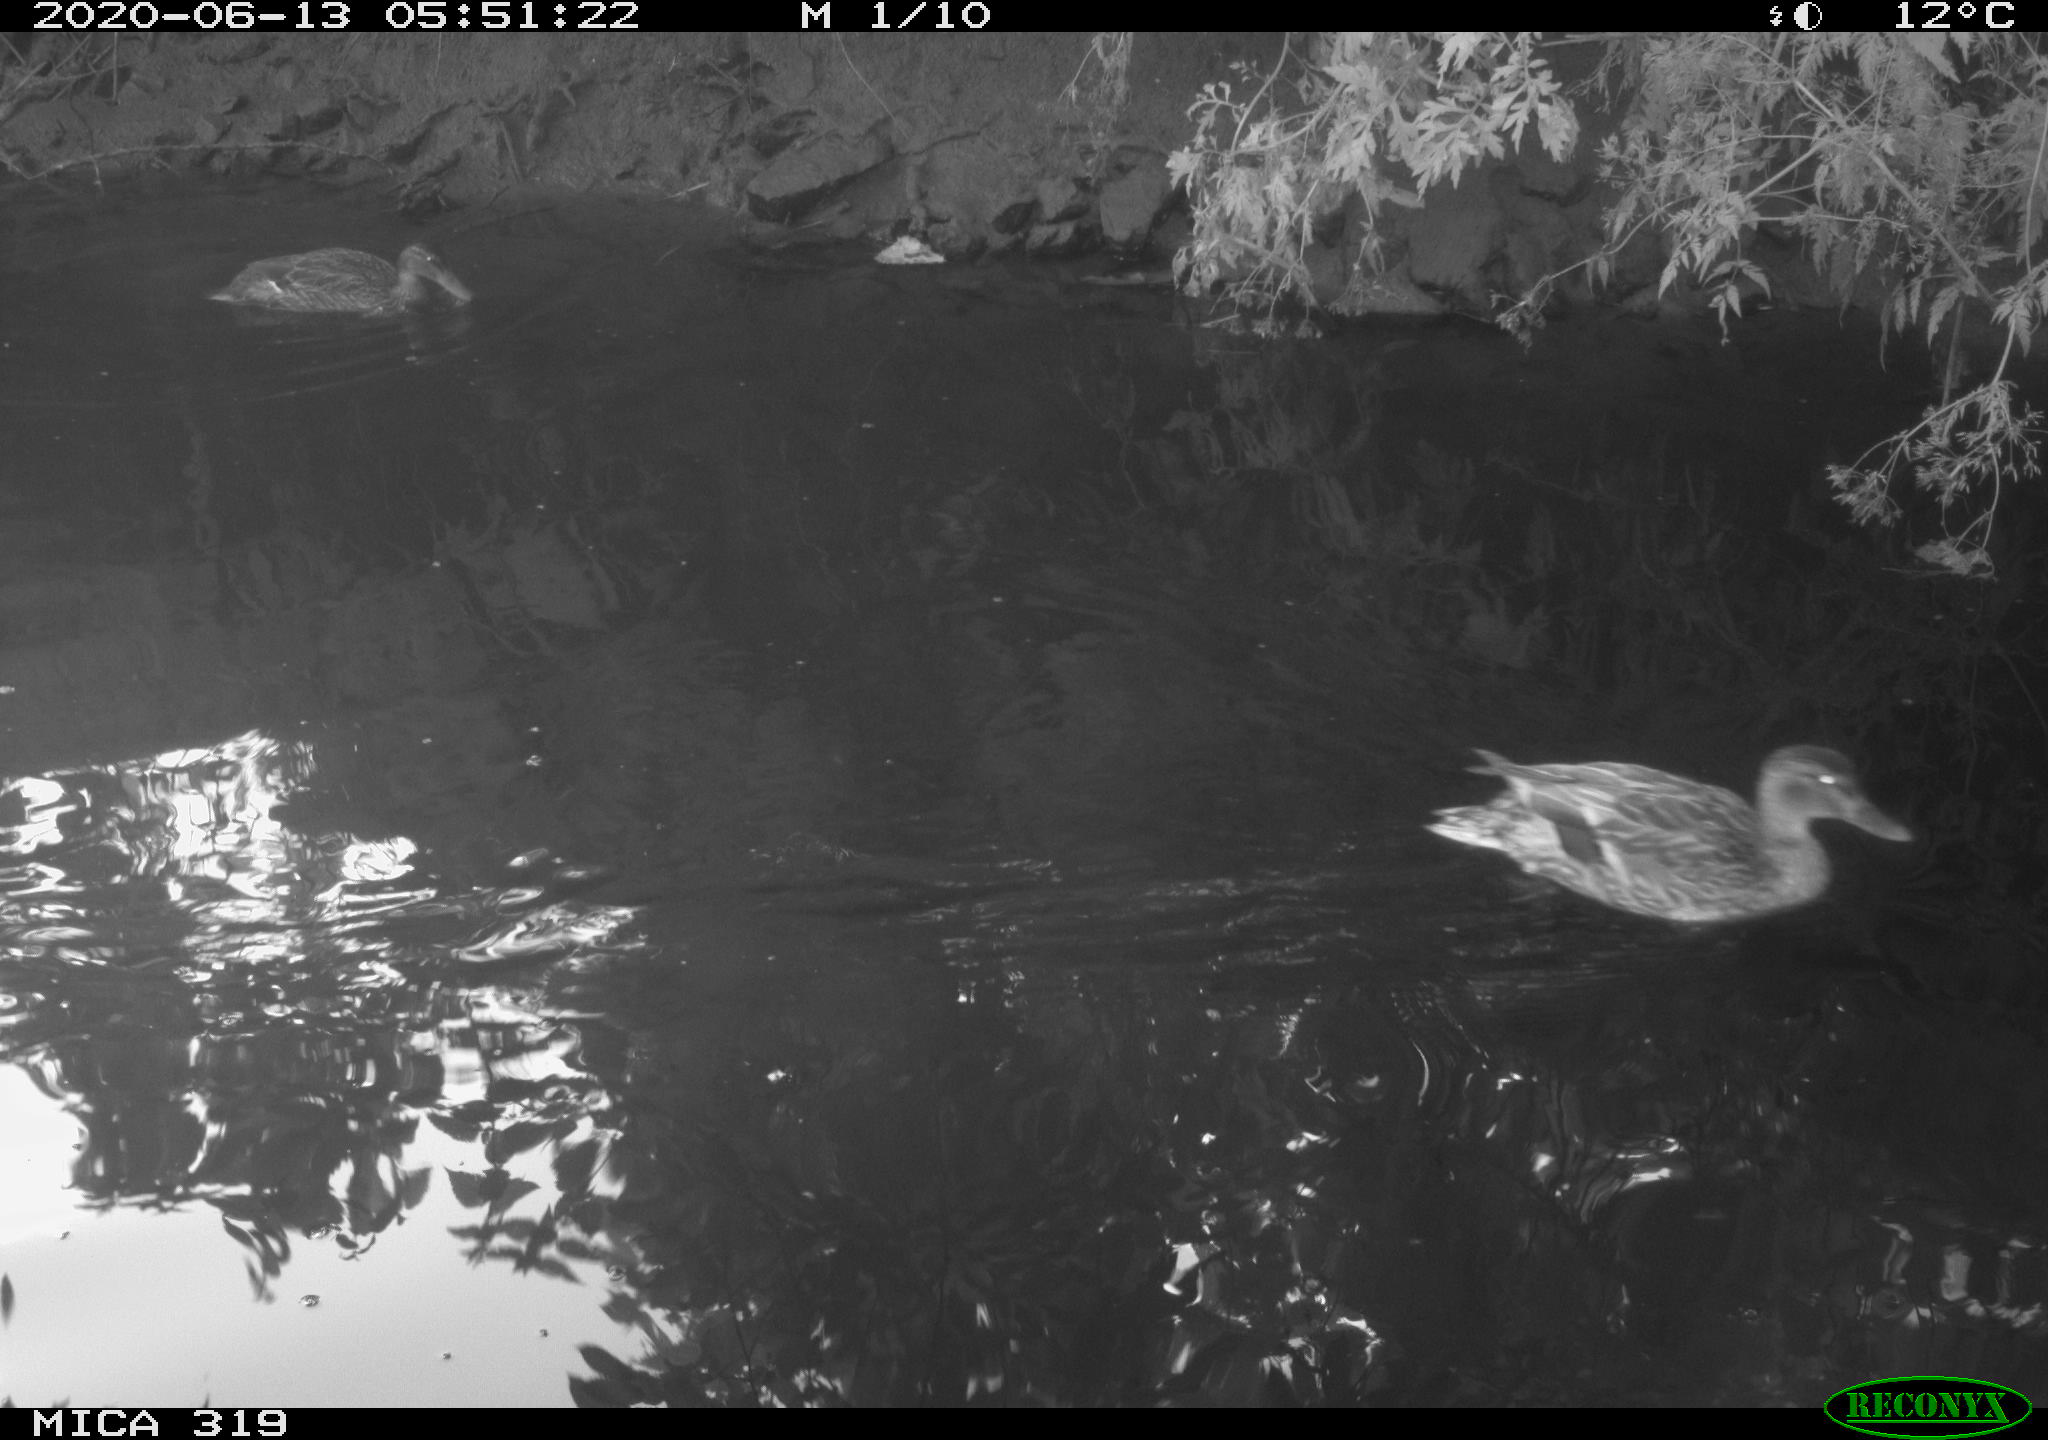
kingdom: Animalia
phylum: Chordata
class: Aves
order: Anseriformes
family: Anatidae
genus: Anas
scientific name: Anas platyrhynchos
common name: Mallard
